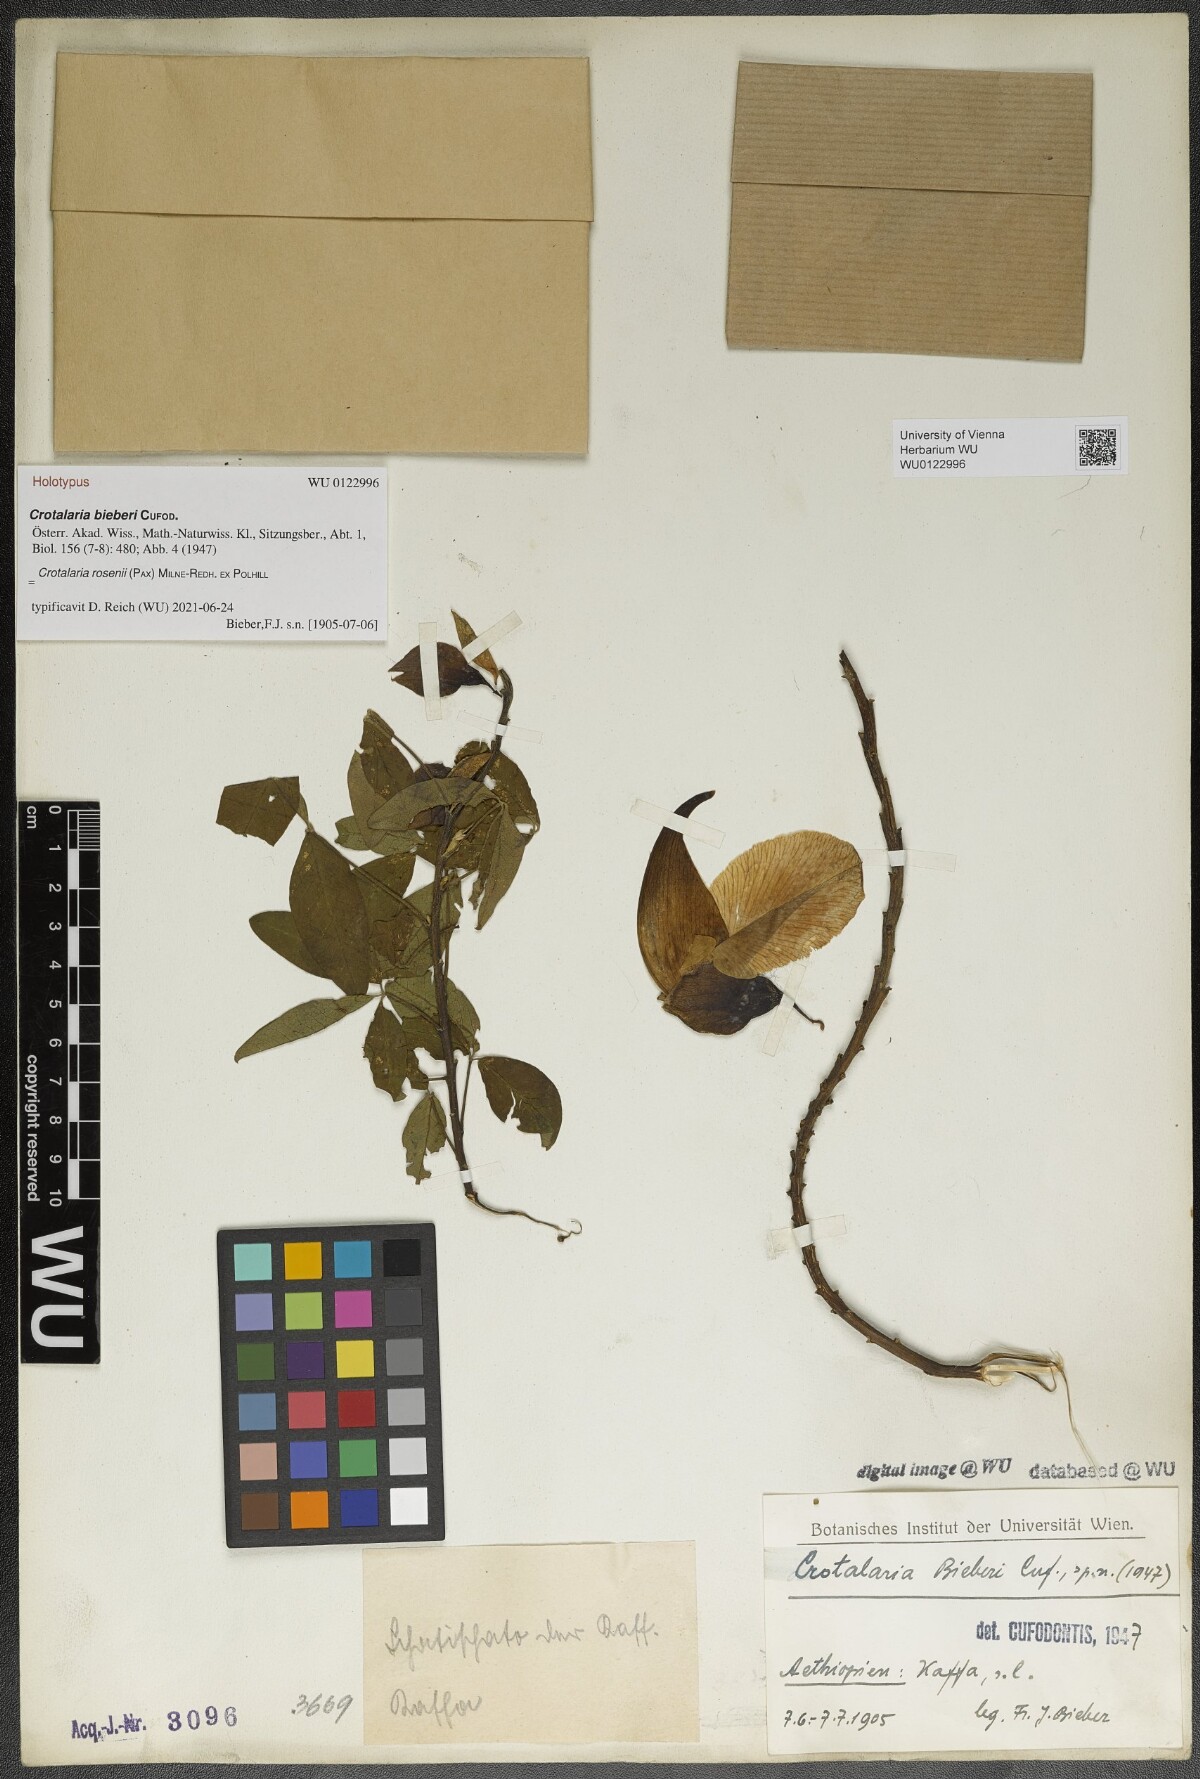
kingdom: Plantae
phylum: Tracheophyta
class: Magnoliopsida
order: Fabales
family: Fabaceae
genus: Crotalaria
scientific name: Crotalaria rosenii
